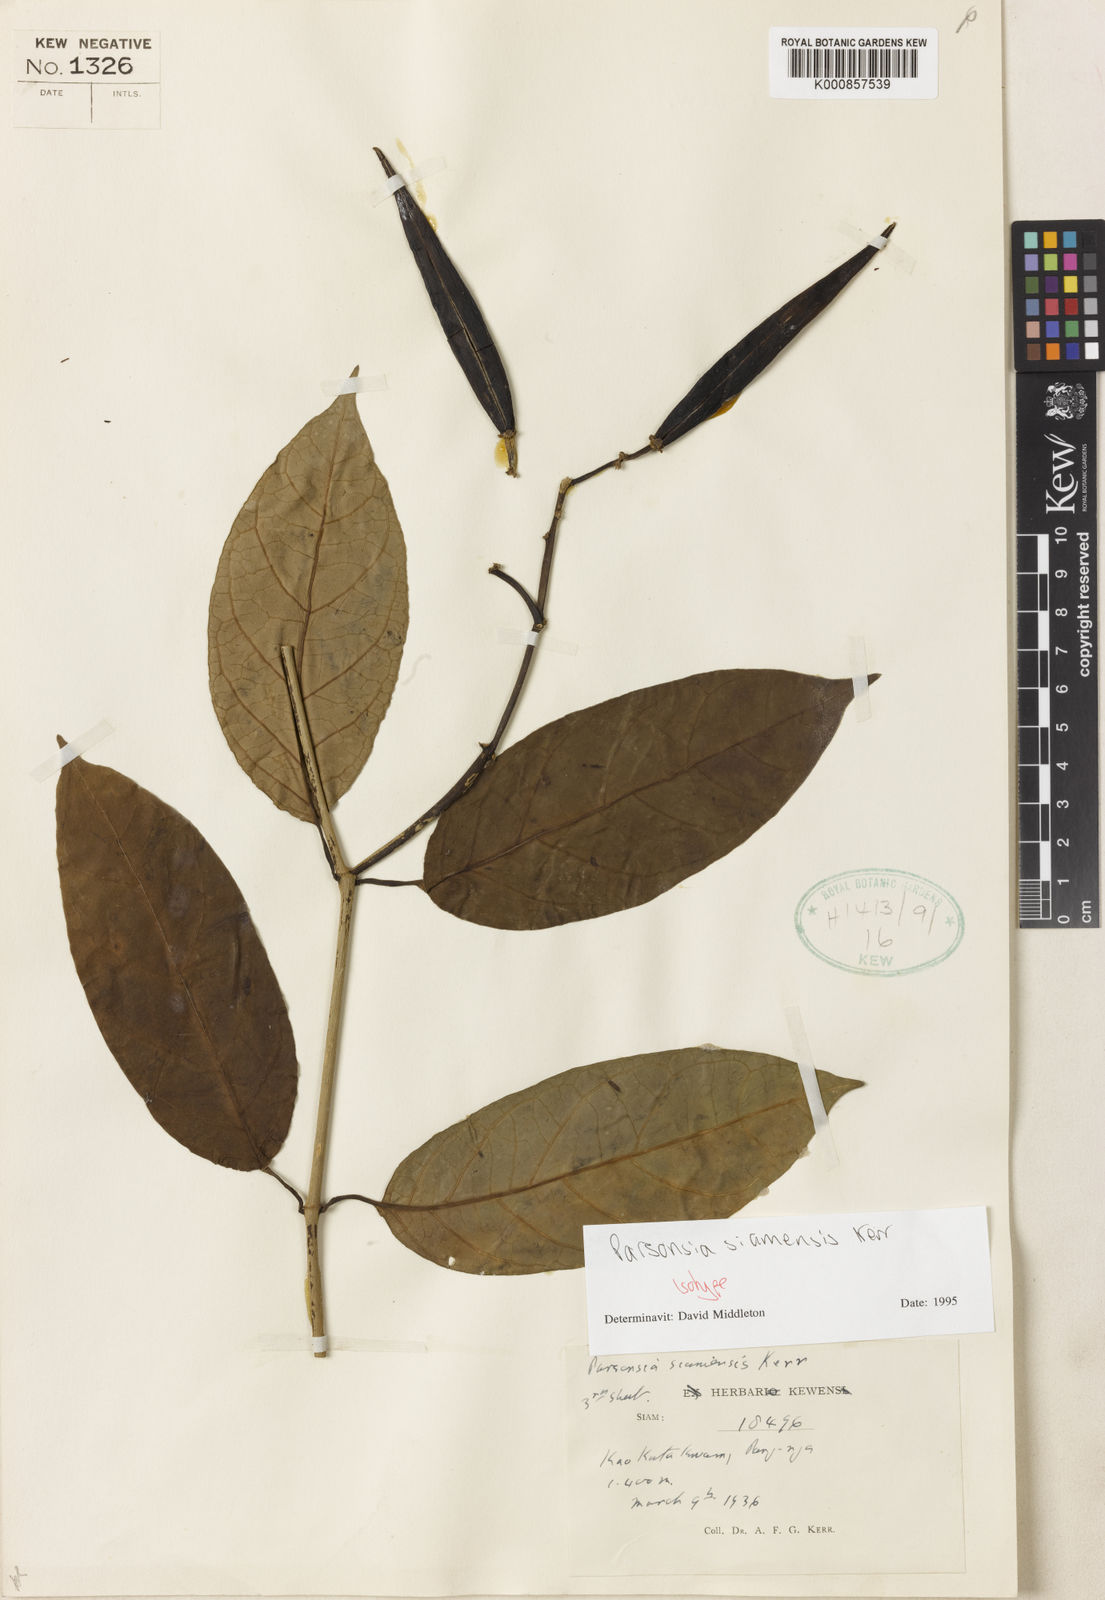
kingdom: Plantae
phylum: Tracheophyta
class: Magnoliopsida
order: Gentianales
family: Apocynaceae
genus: Parsonsia
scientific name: Parsonsia philippinensis
